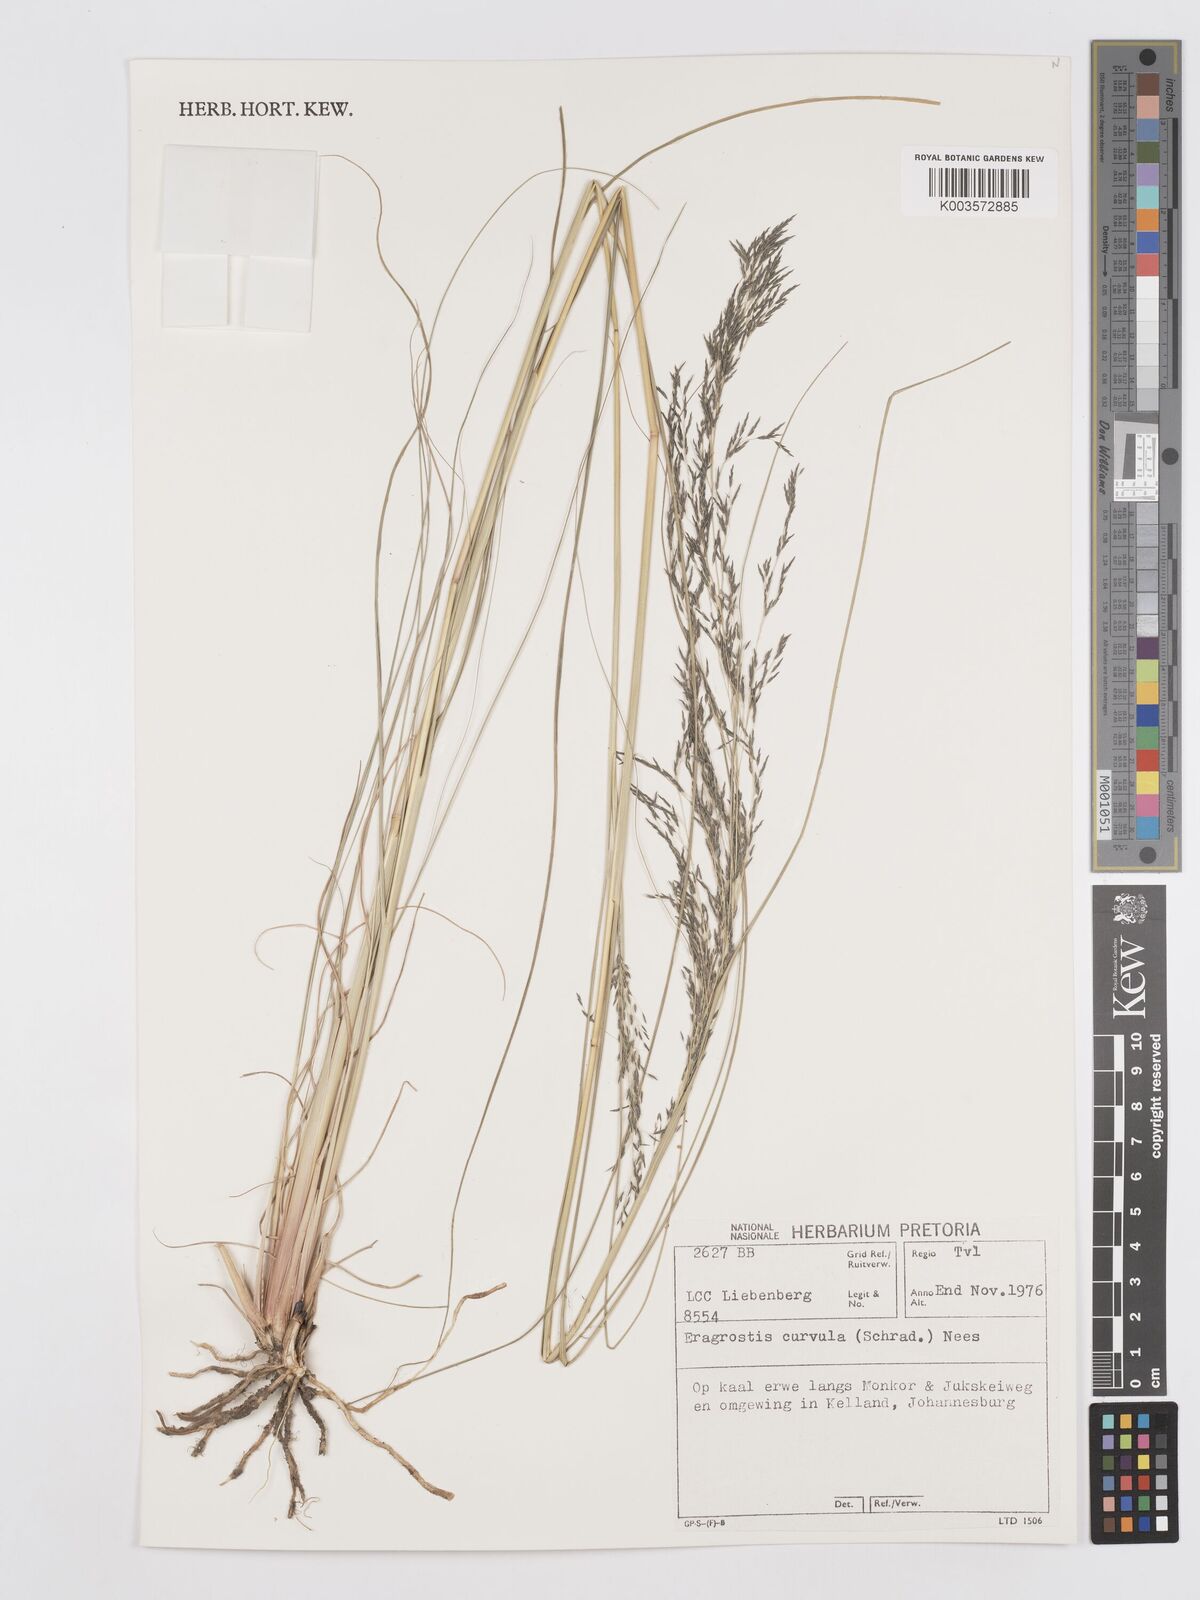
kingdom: Plantae
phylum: Tracheophyta
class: Liliopsida
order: Poales
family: Poaceae
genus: Eragrostis
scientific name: Eragrostis curvula
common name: African love-grass
